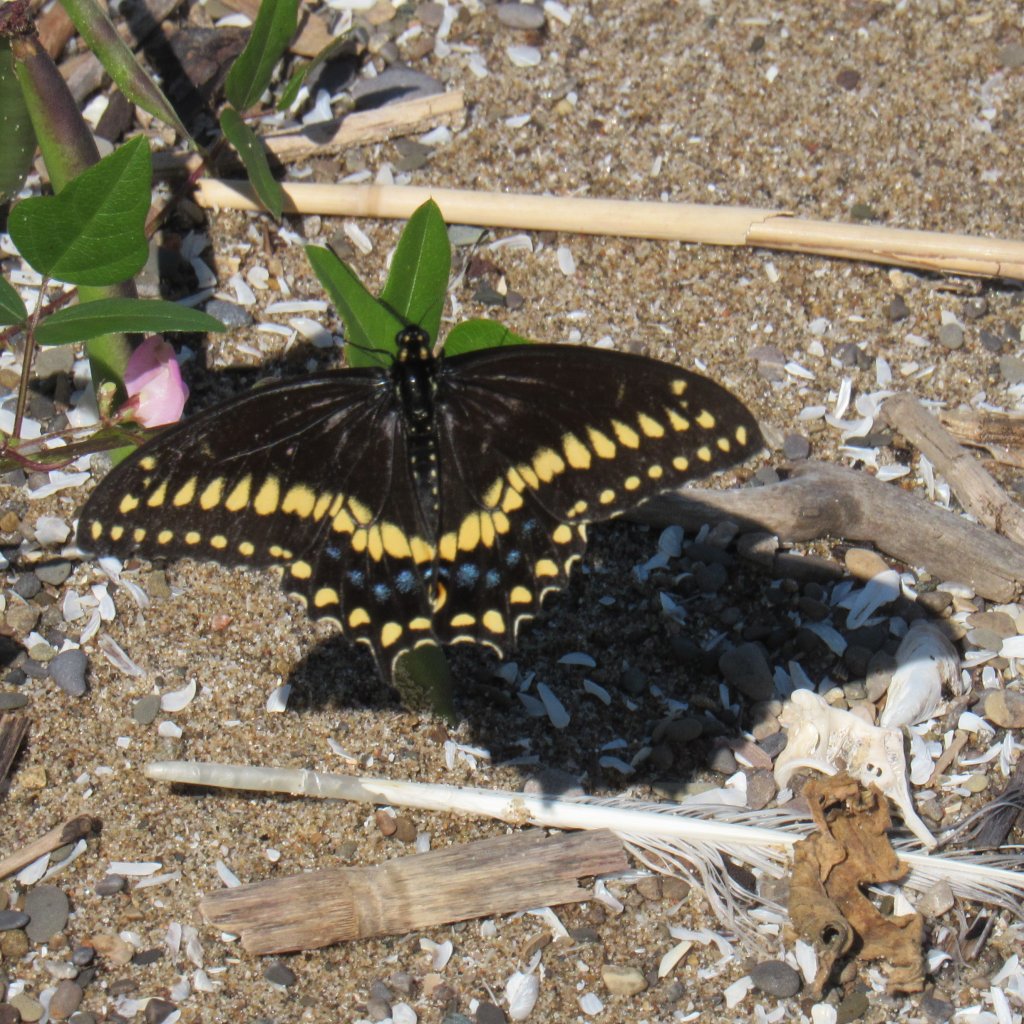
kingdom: Animalia
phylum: Arthropoda
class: Insecta
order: Lepidoptera
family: Papilionidae
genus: Papilio
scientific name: Papilio polyxenes
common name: Black Swallowtail
